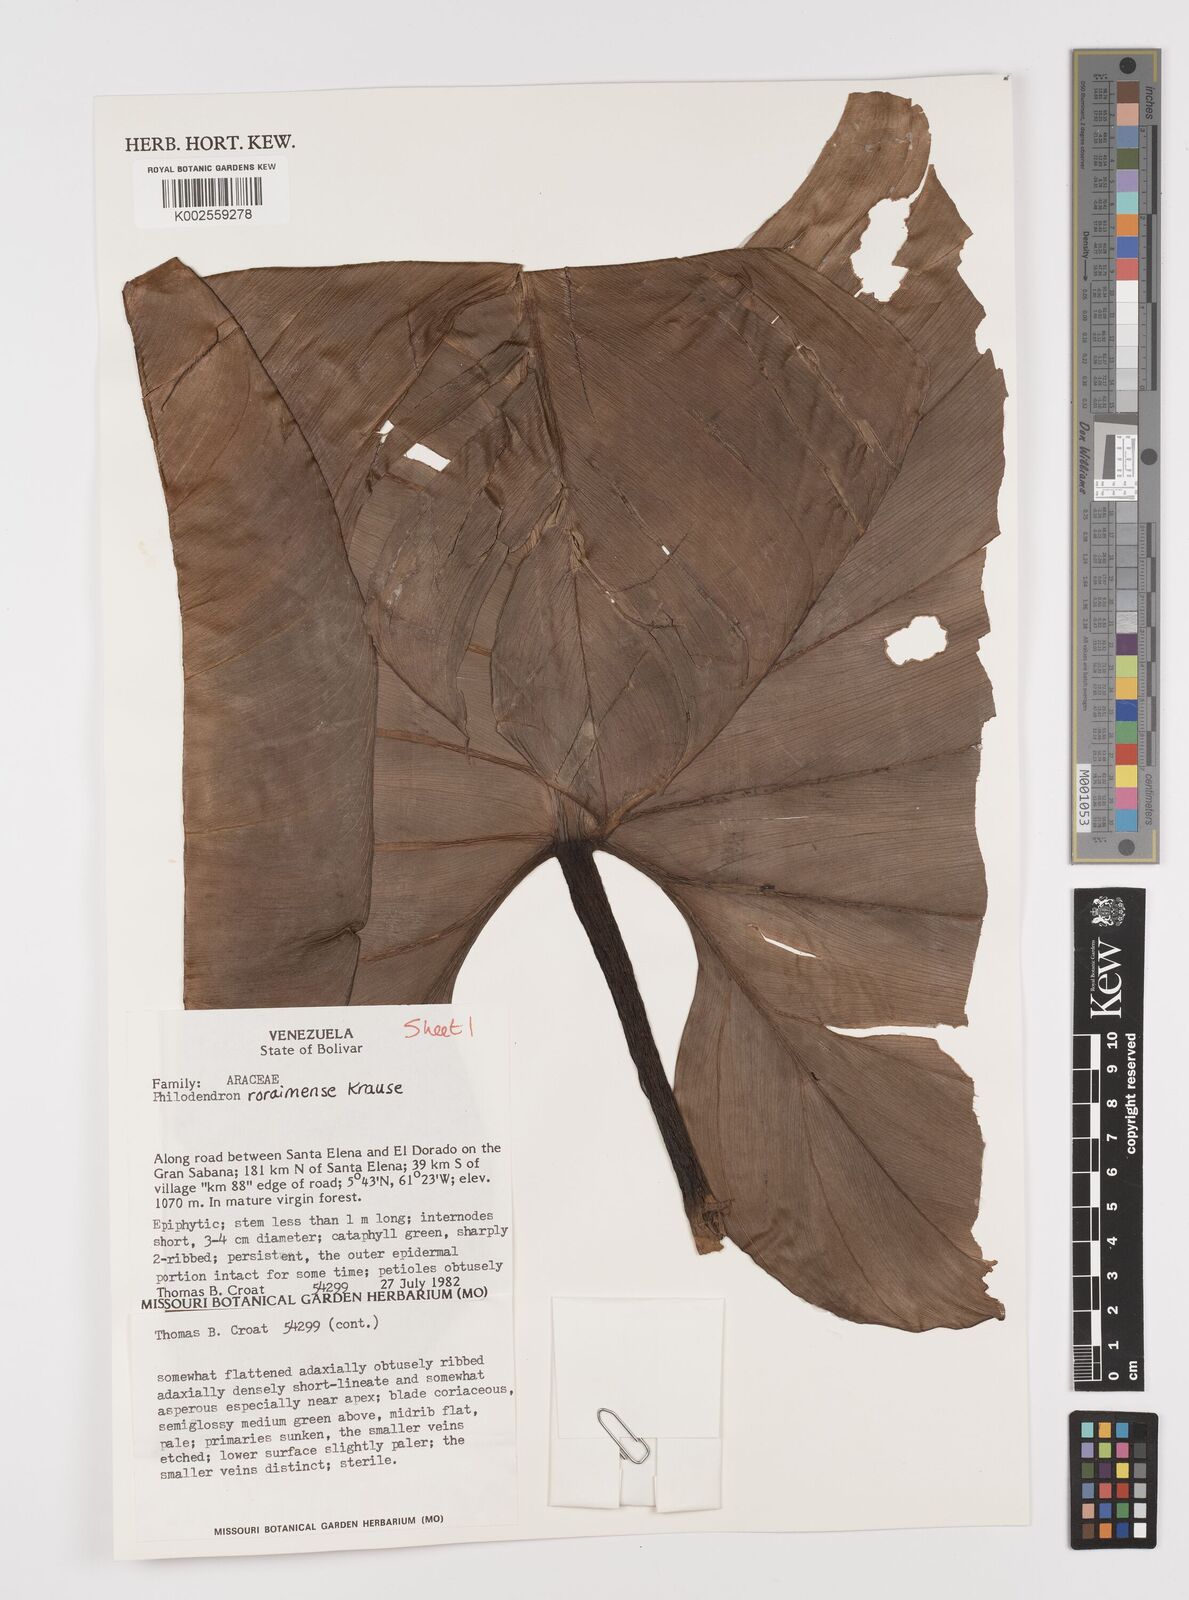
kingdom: Plantae
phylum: Tracheophyta
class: Liliopsida
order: Alismatales
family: Araceae
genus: Philodendron
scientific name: Philodendron roraimae
